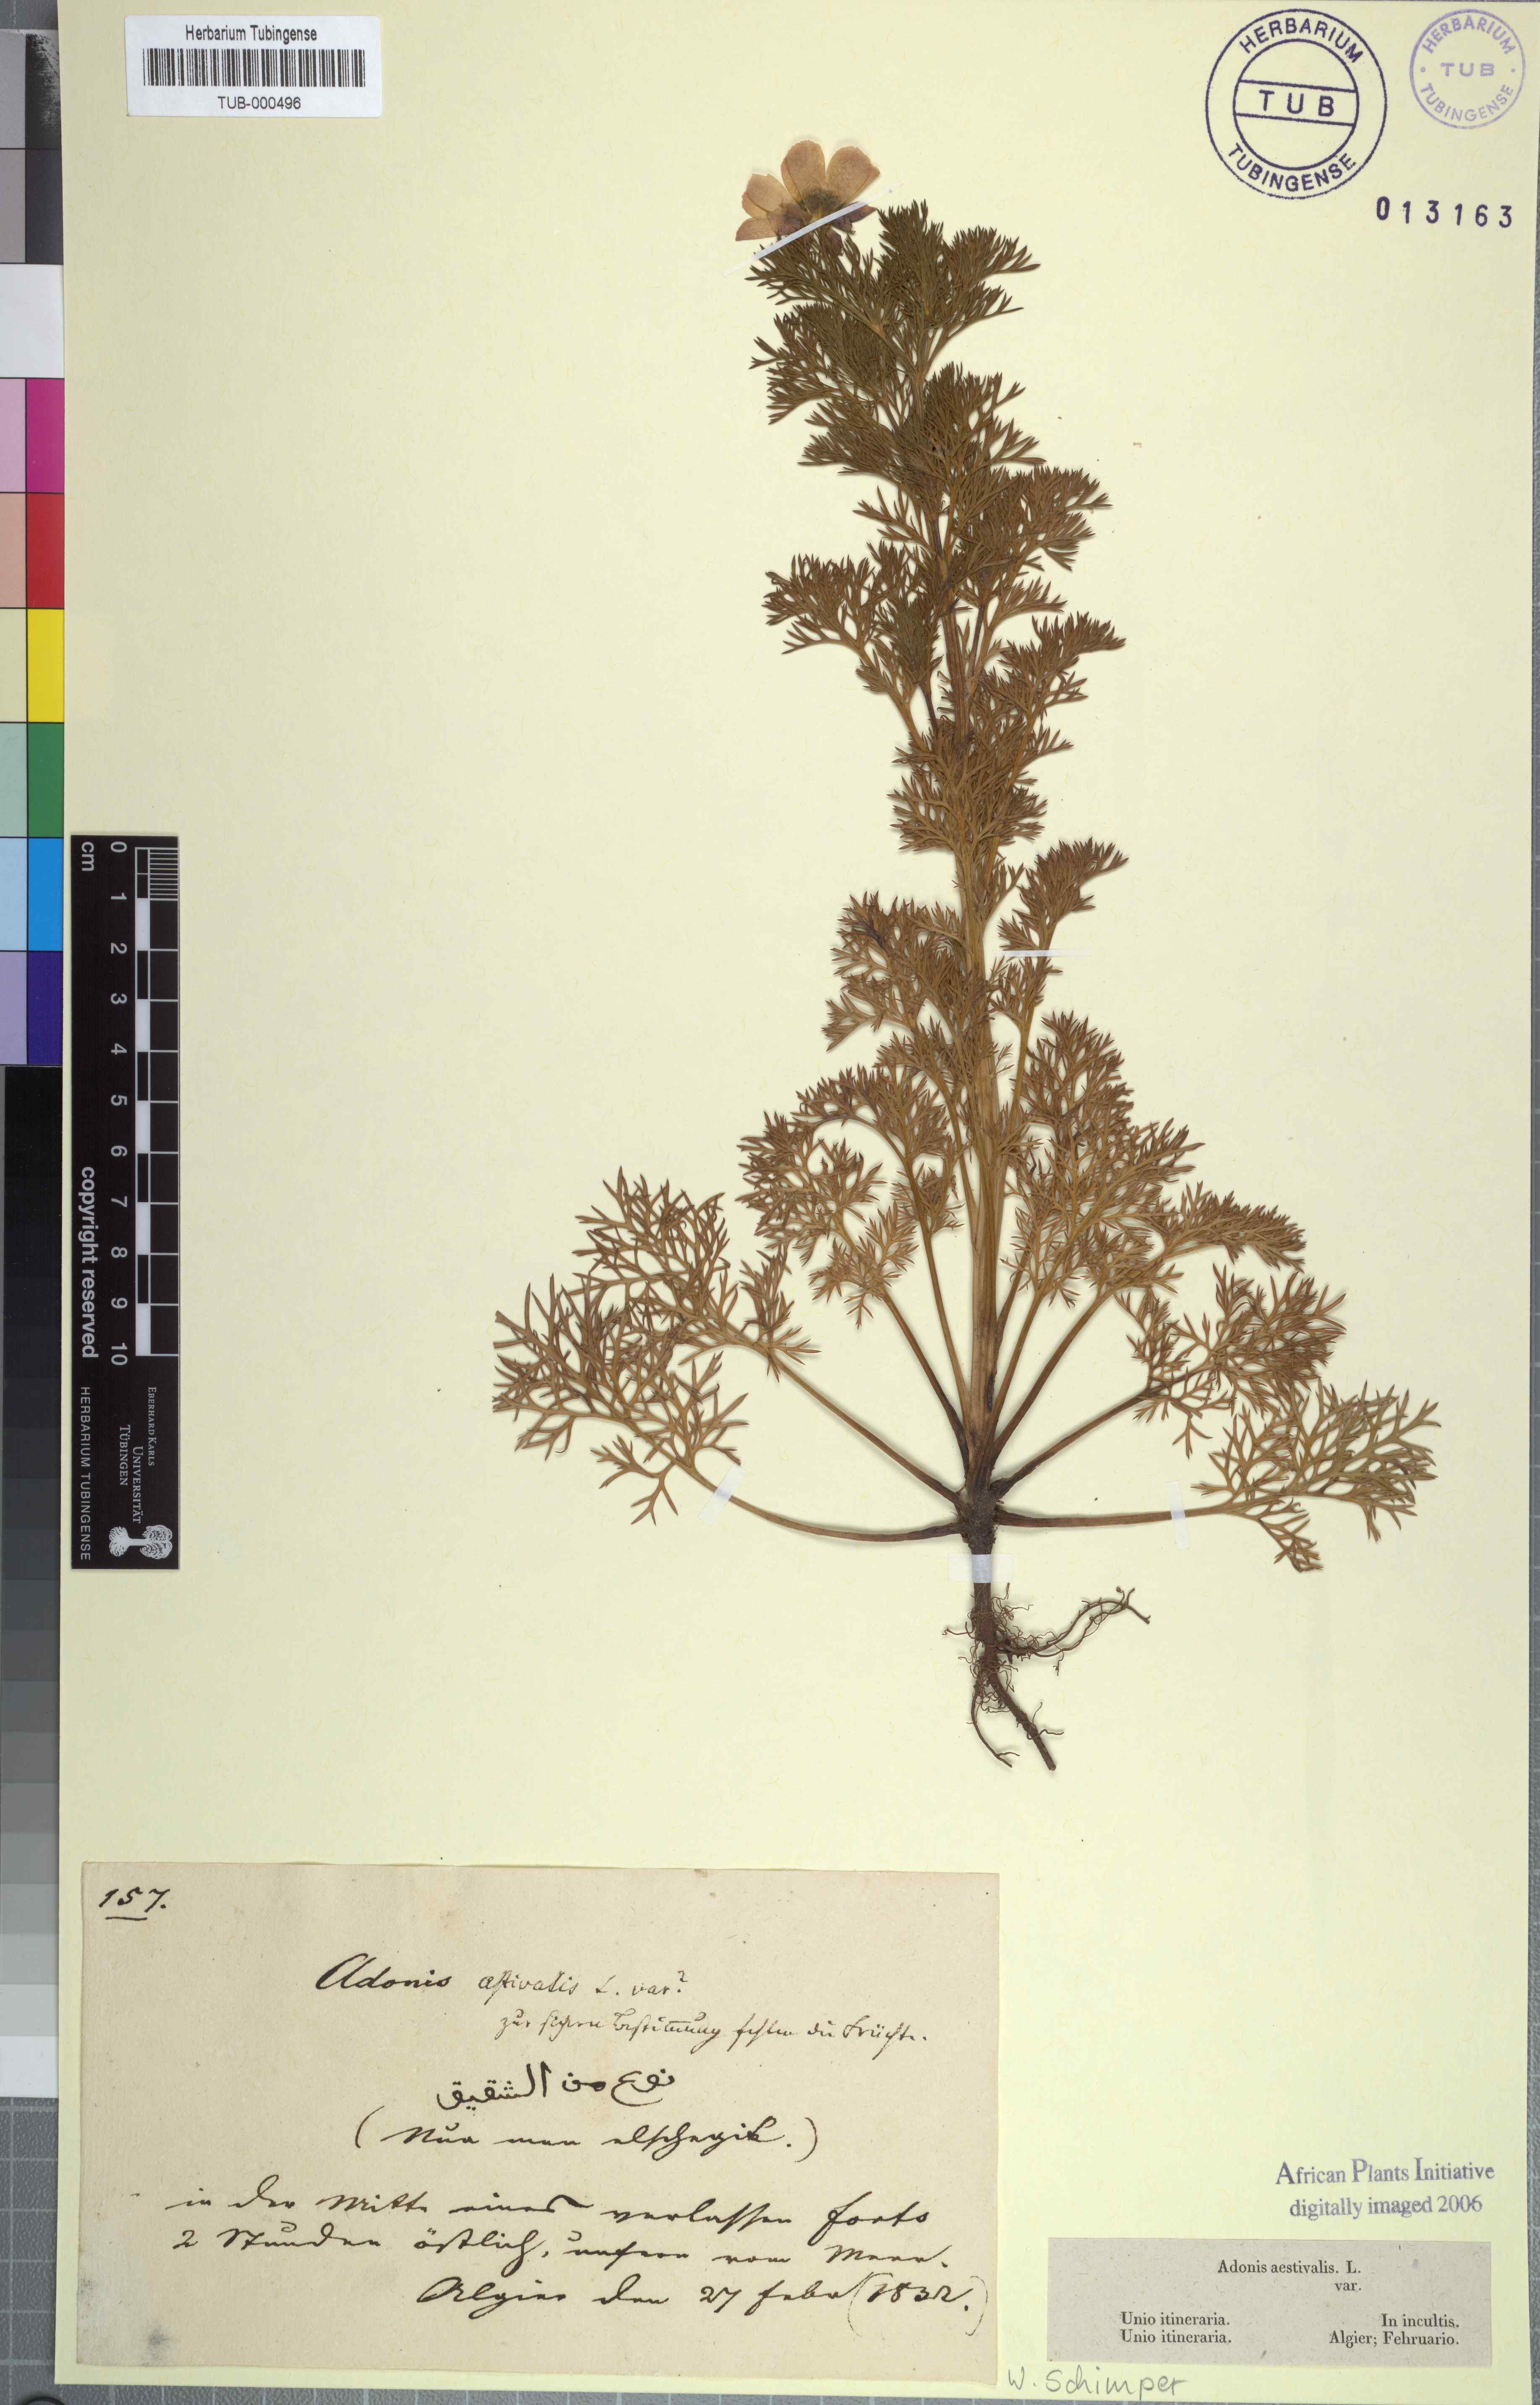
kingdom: Plantae
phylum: Tracheophyta
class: Magnoliopsida
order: Ranunculales
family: Ranunculaceae
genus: Adonis
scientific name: Adonis aestivalis
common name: Summer pheasant's-eye
